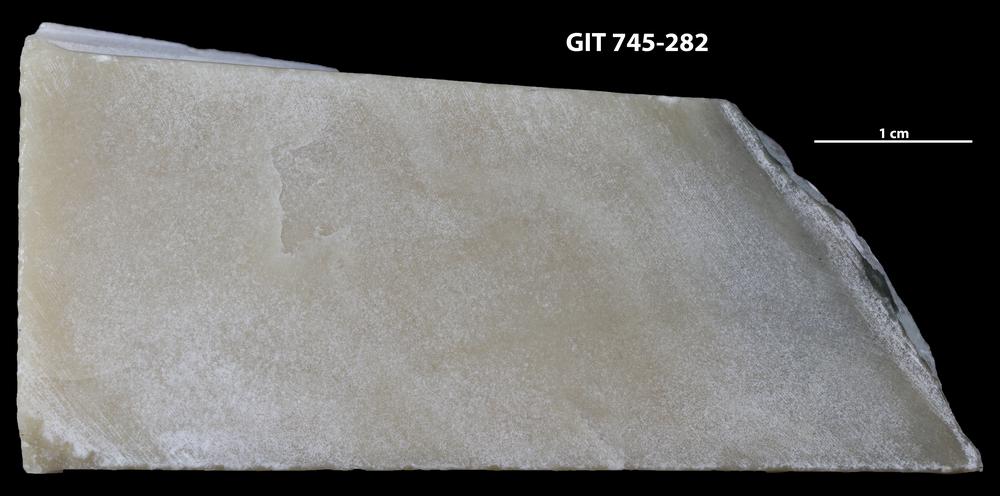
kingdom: Animalia
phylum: Porifera
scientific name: Porifera
